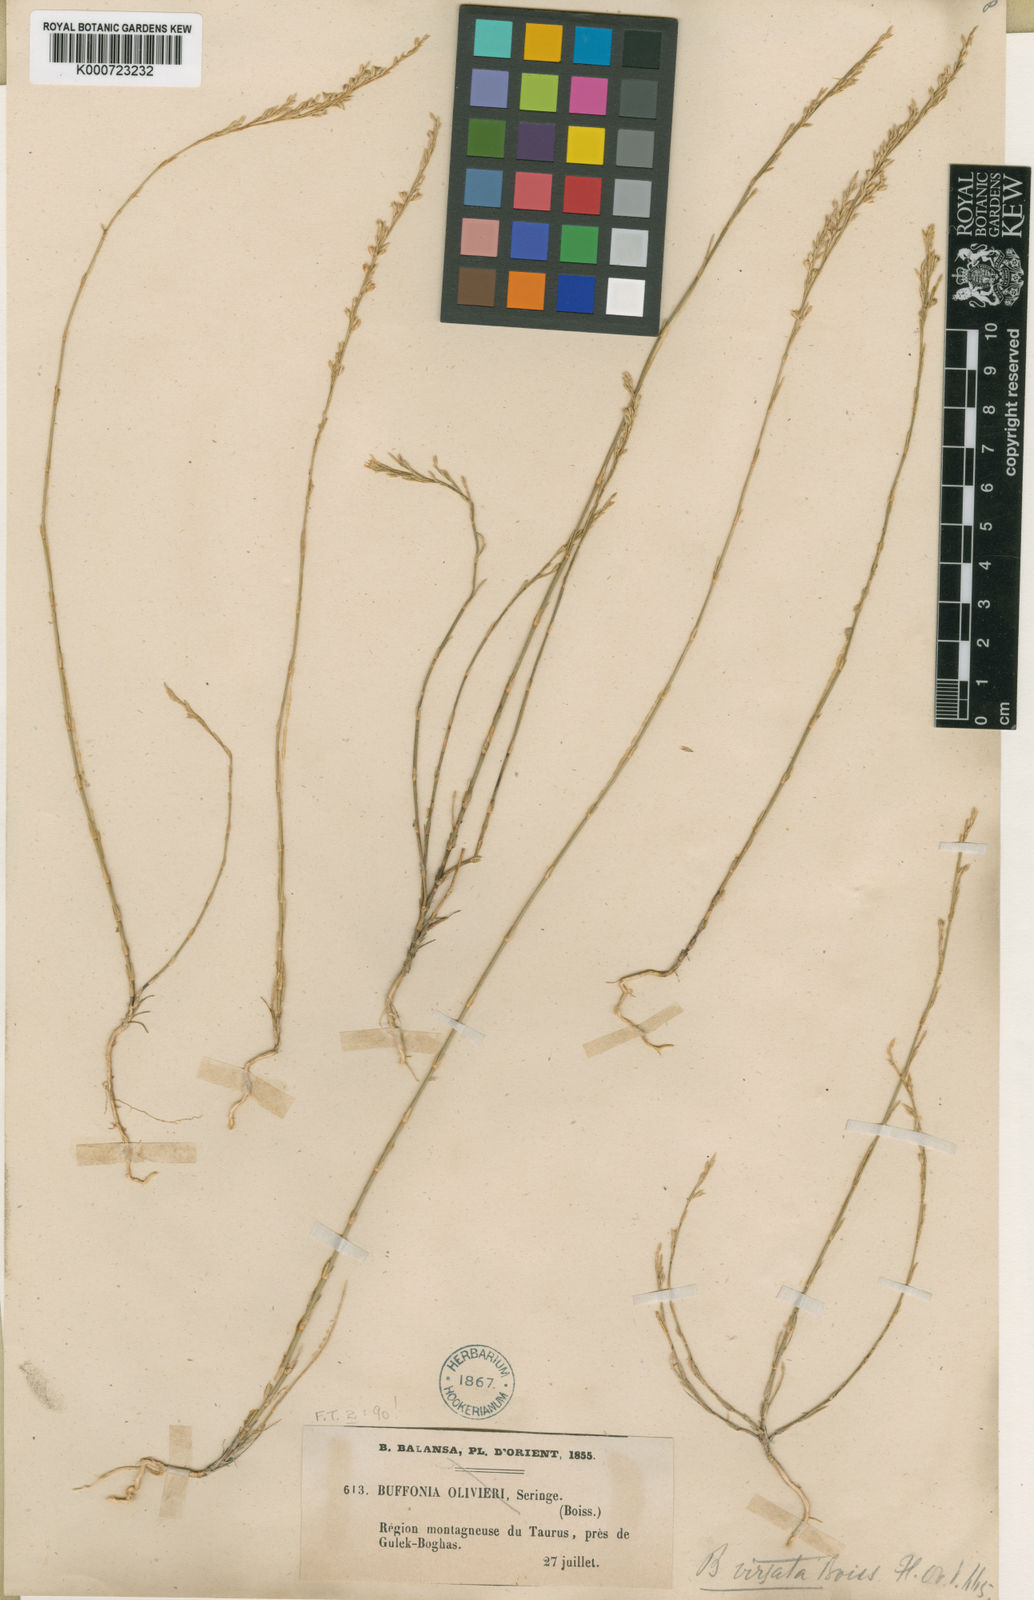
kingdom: Plantae
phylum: Tracheophyta
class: Magnoliopsida
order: Caryophyllales
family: Caryophyllaceae
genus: Bufonia
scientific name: Bufonia virgata
